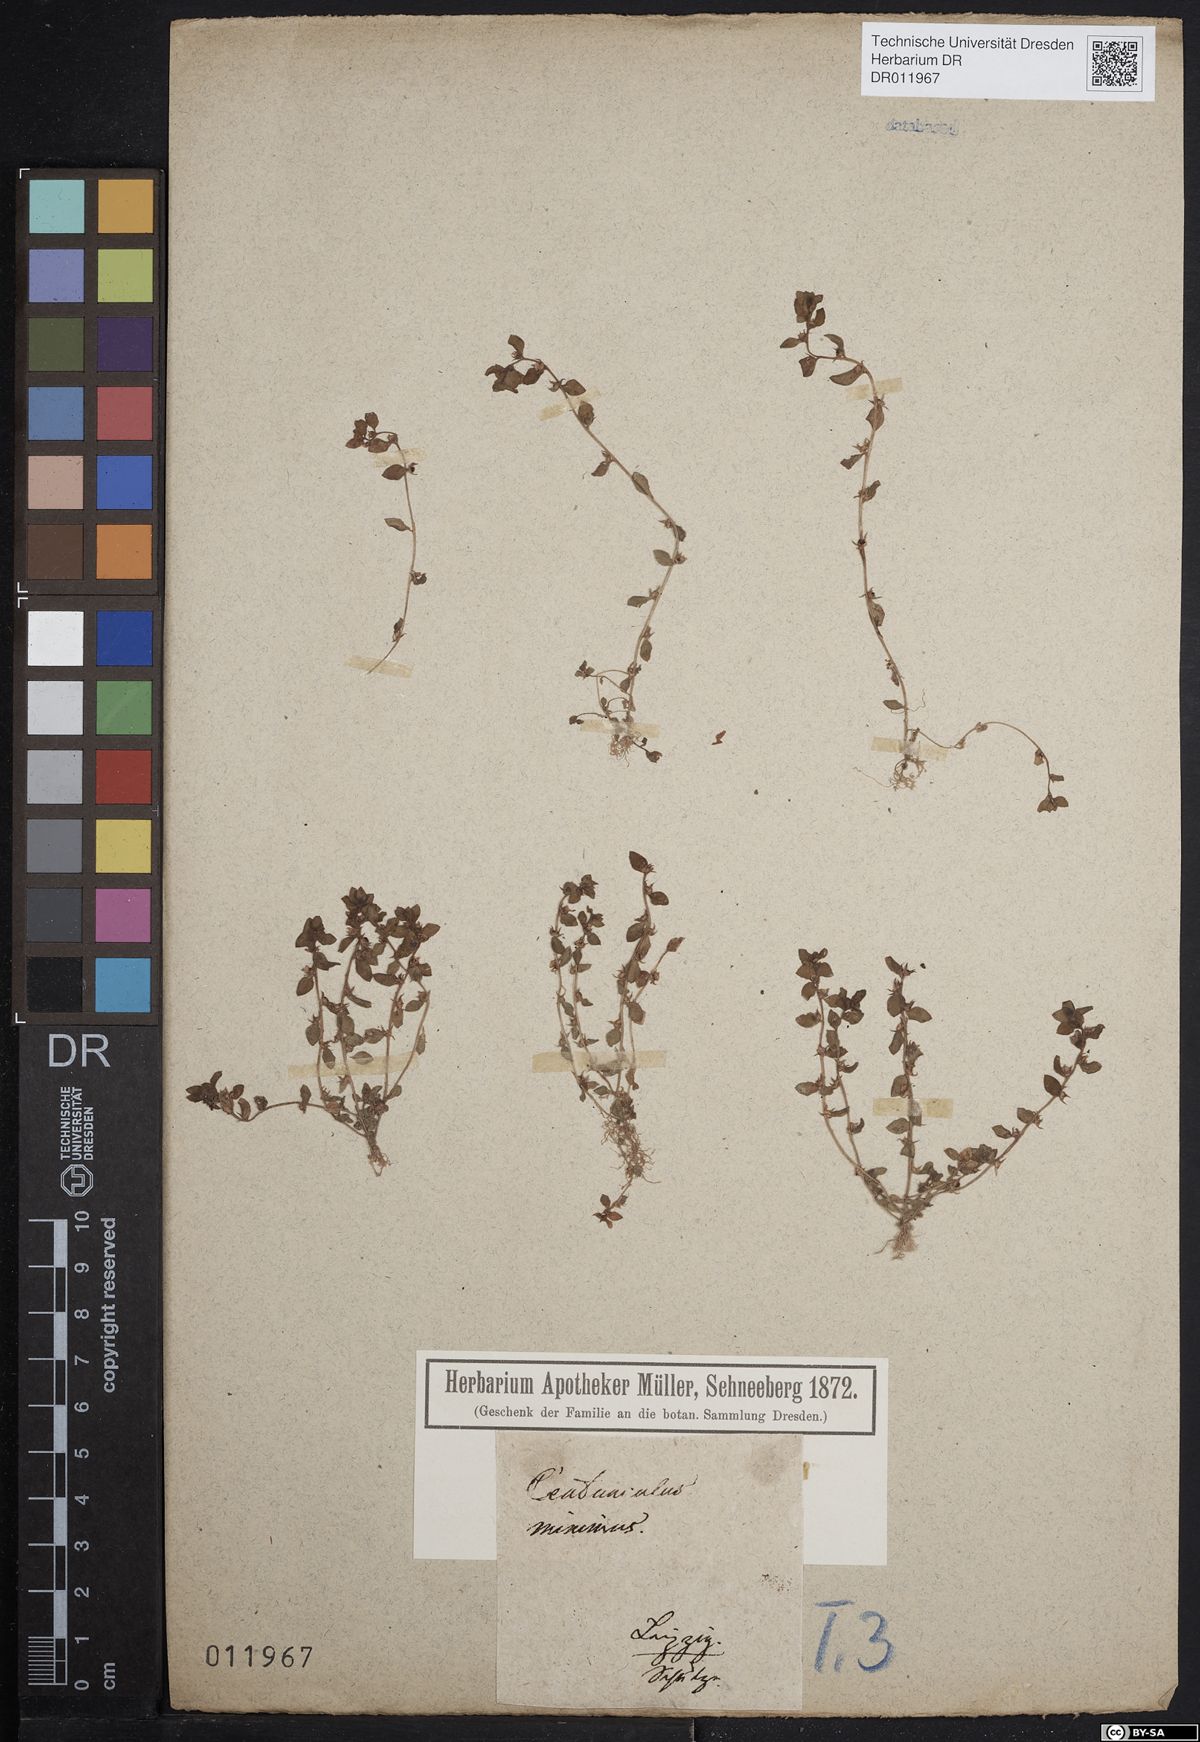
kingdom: Plantae
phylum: Tracheophyta
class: Magnoliopsida
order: Ericales
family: Primulaceae
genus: Lysimachia
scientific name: Lysimachia minima
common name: Chaffweed
